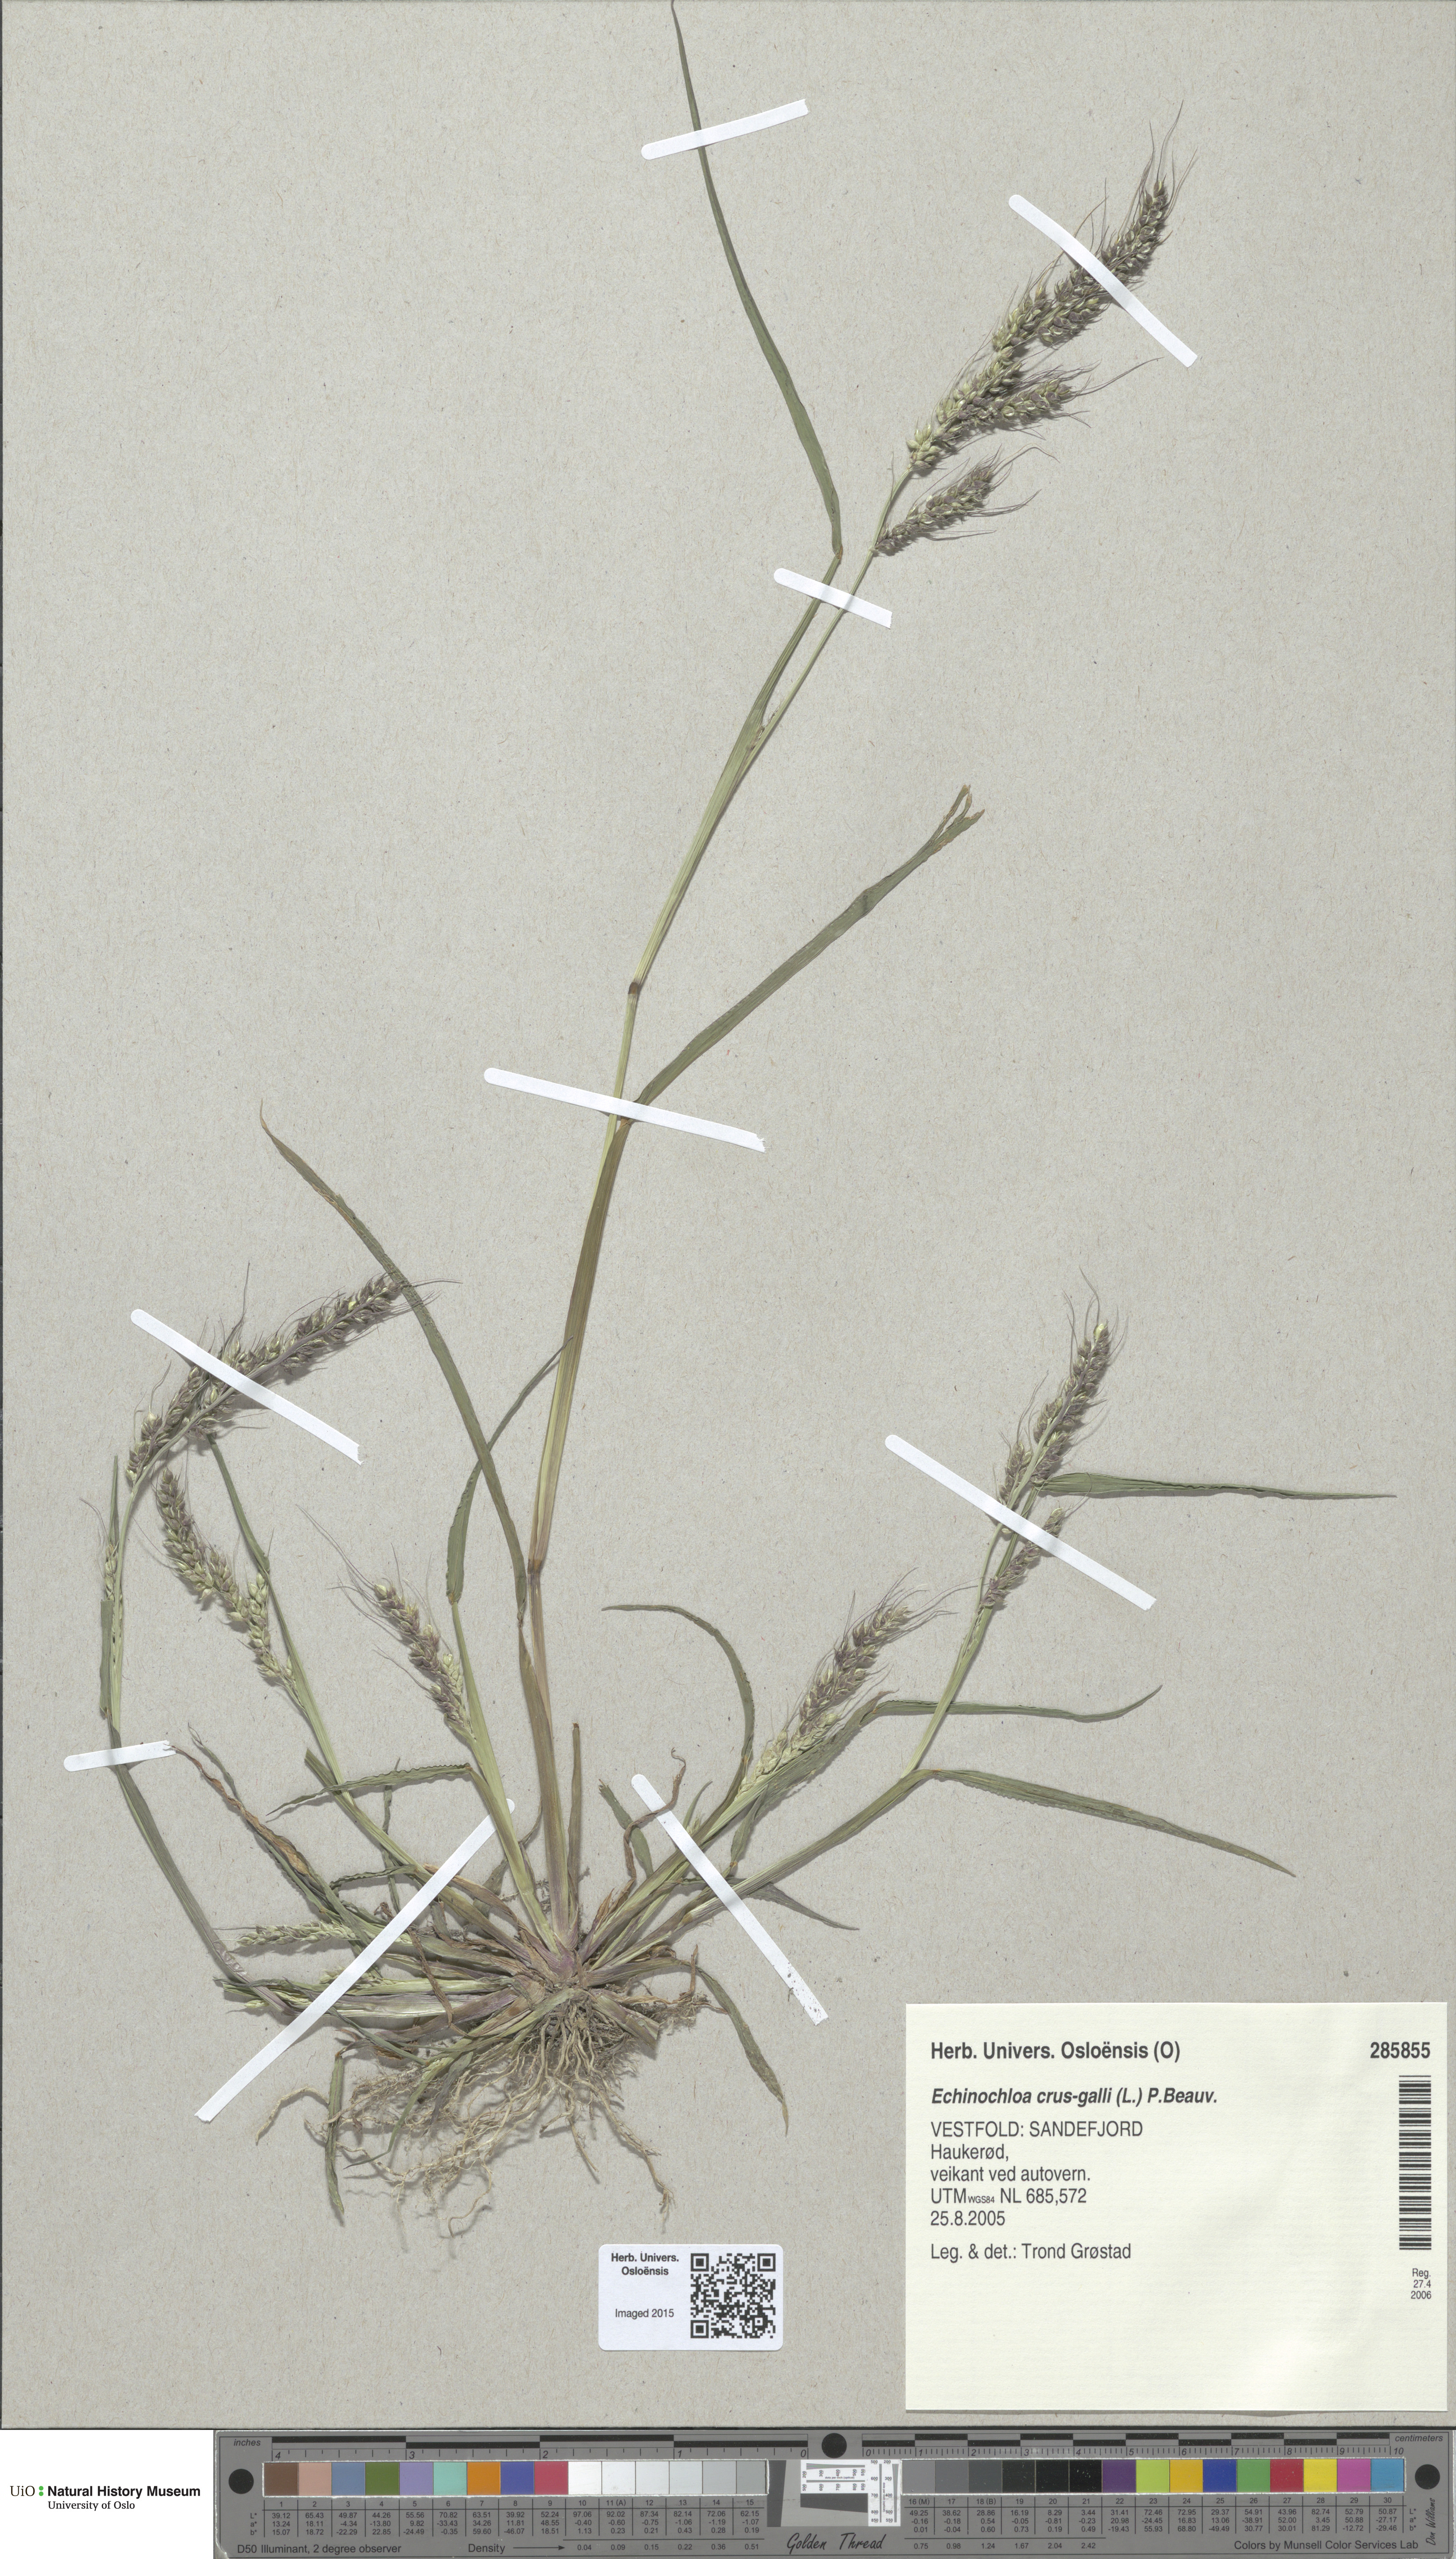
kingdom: Plantae
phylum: Tracheophyta
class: Liliopsida
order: Poales
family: Poaceae
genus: Echinochloa
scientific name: Echinochloa crus-galli
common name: Cockspur
